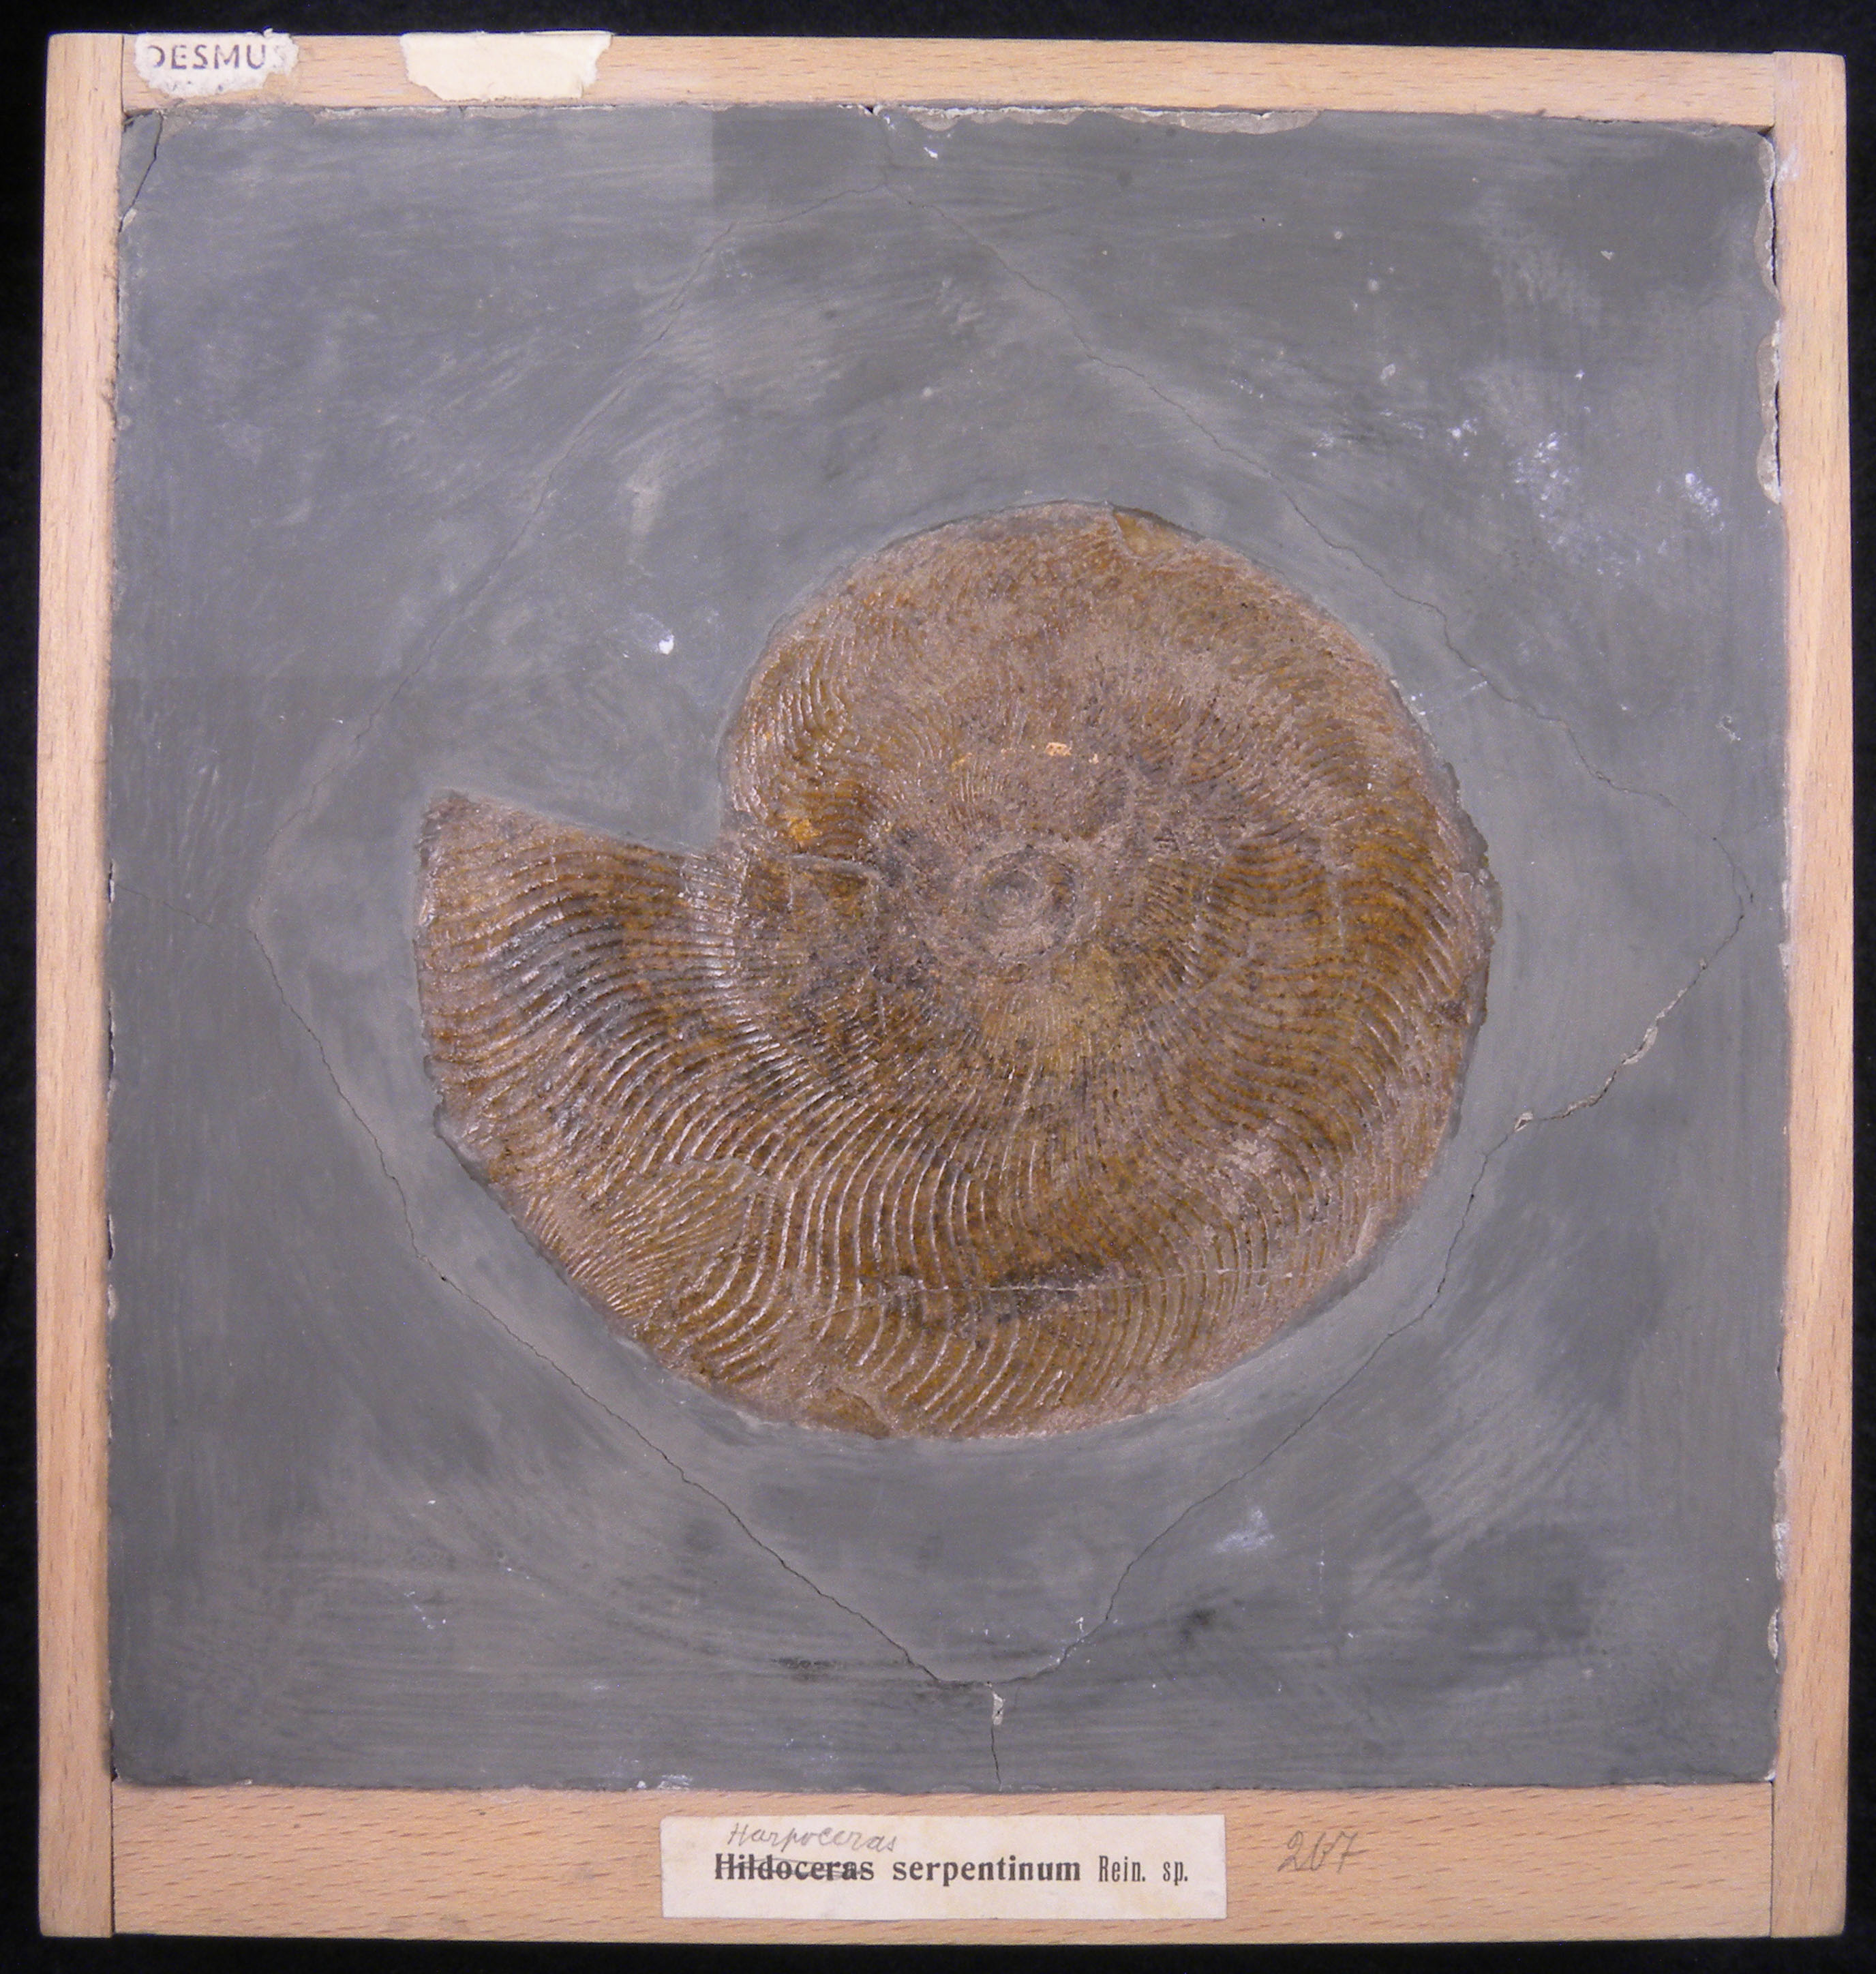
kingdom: Animalia
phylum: Mollusca
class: Cephalopoda
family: Hildoceratidae
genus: Eleganticeras
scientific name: Eleganticeras elegans
